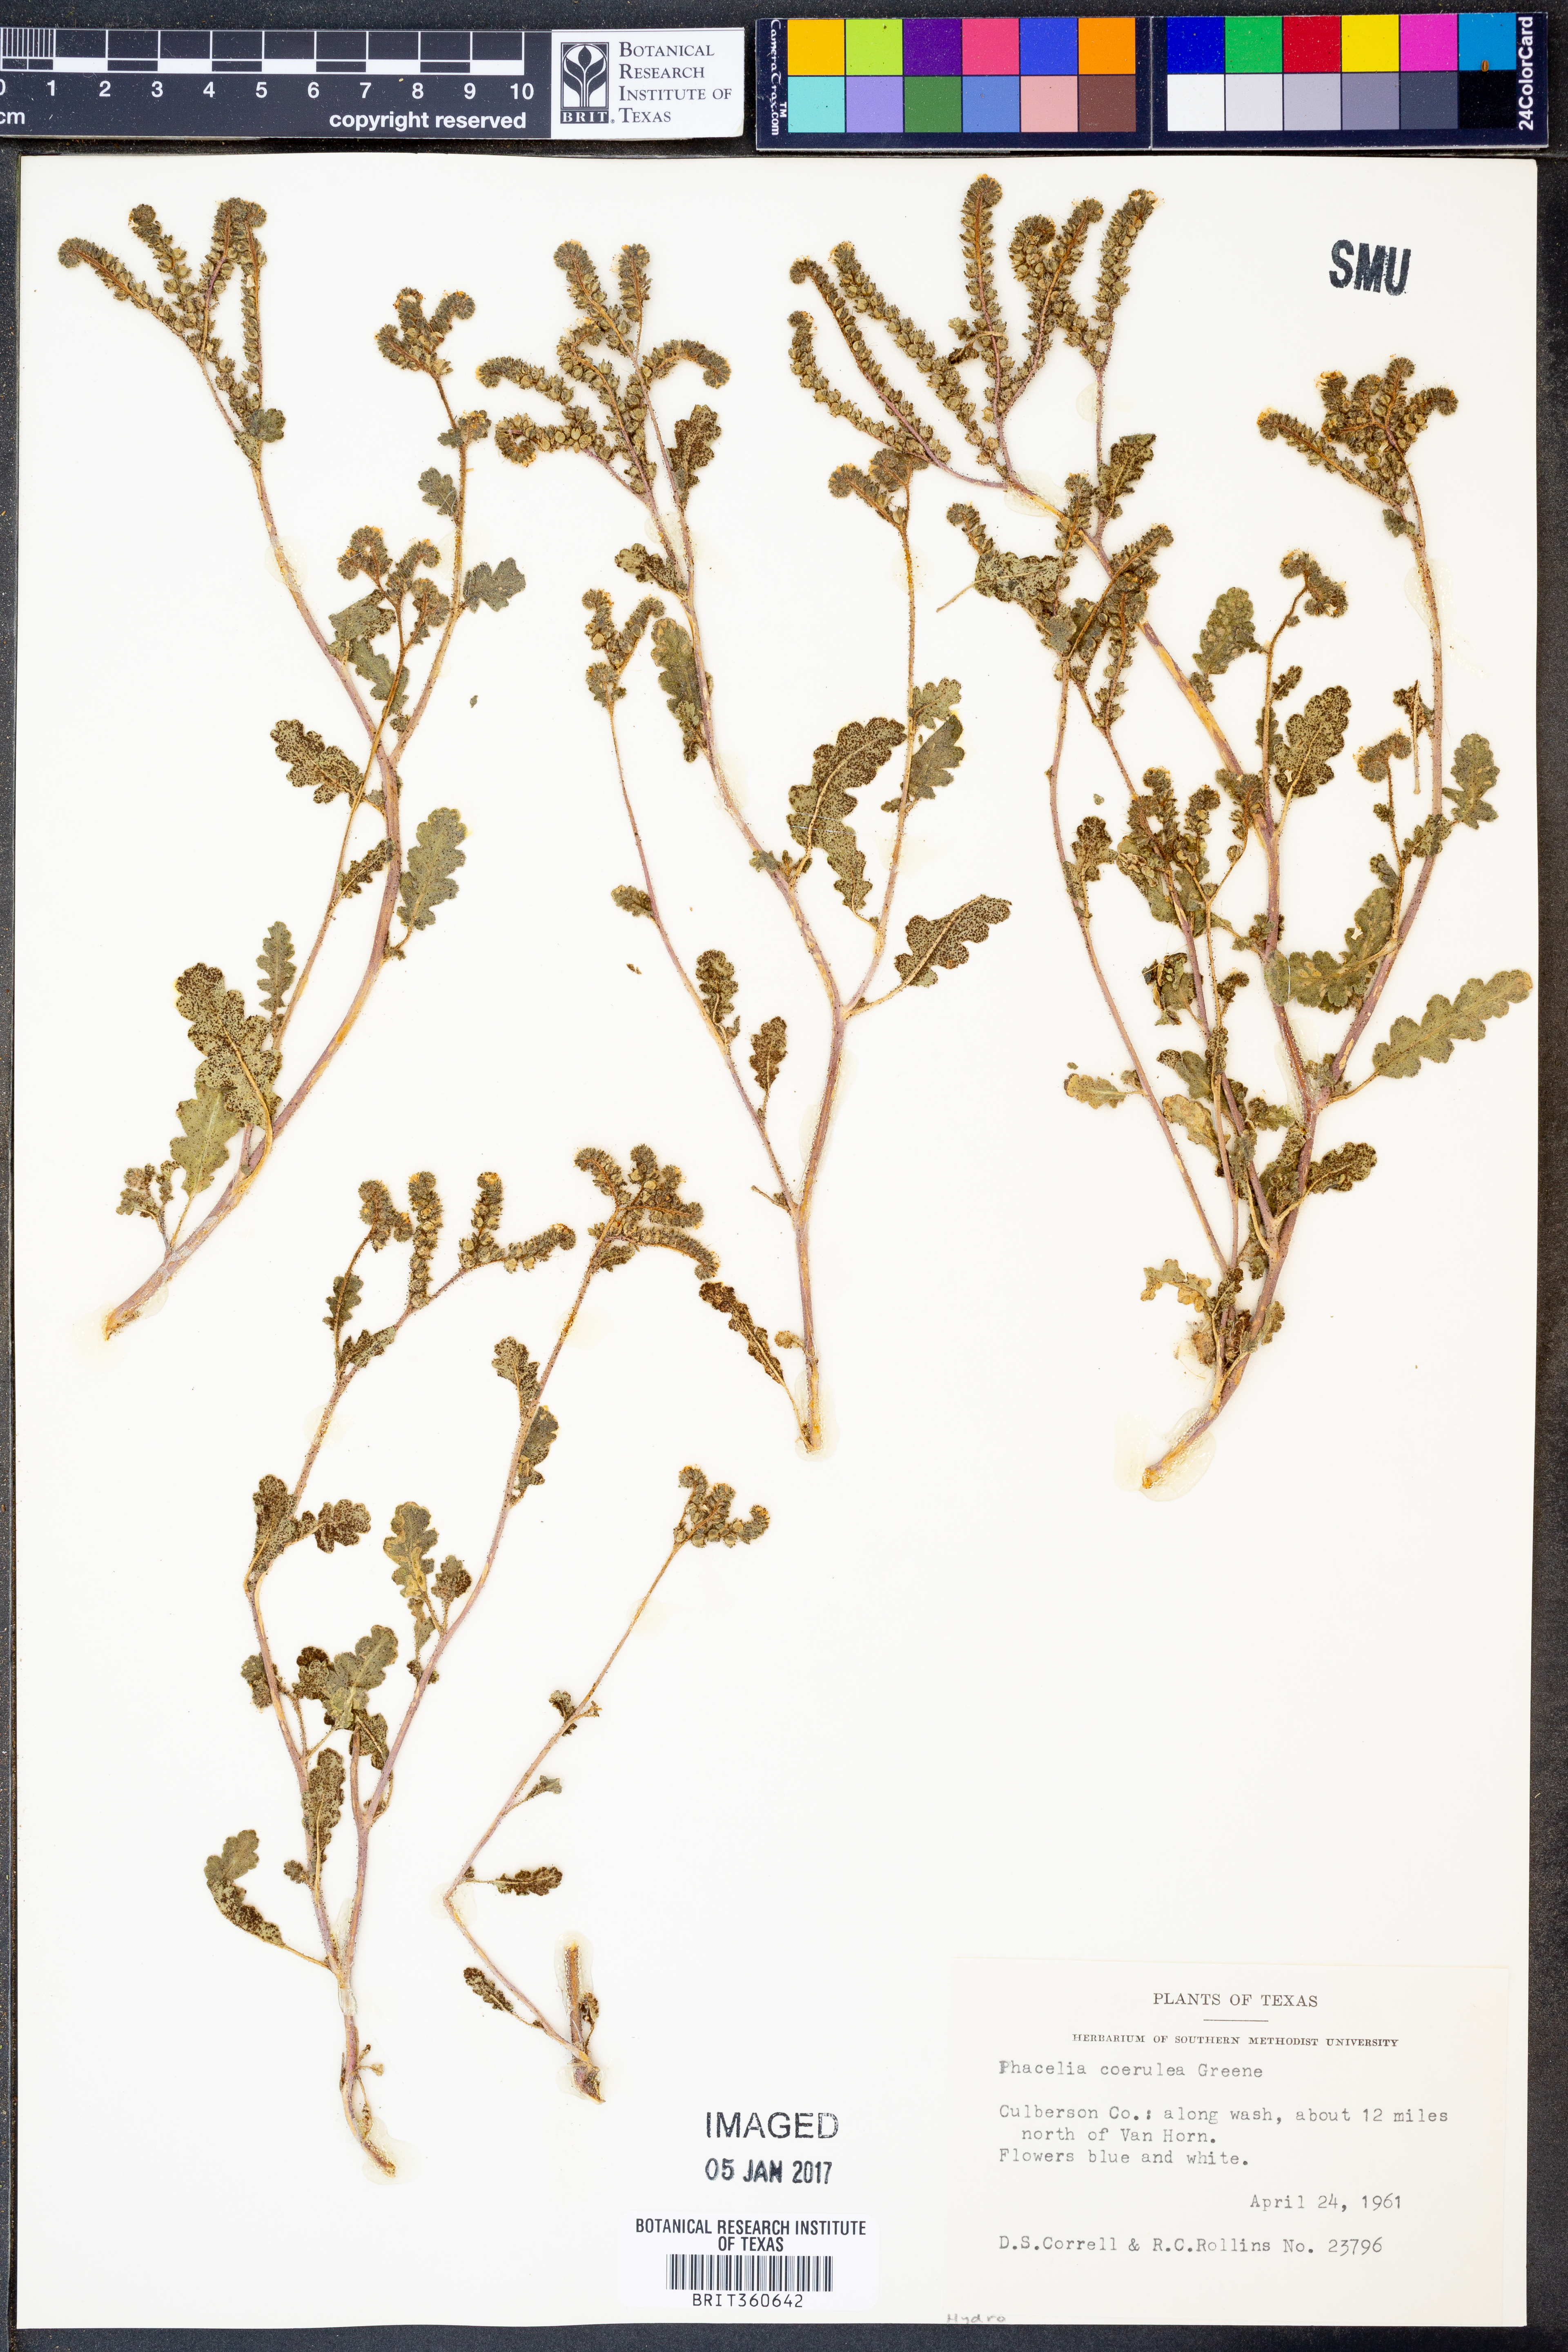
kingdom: Plantae
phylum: Tracheophyta
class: Magnoliopsida
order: Boraginales
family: Hydrophyllaceae
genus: Phacelia
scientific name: Phacelia coerulea
